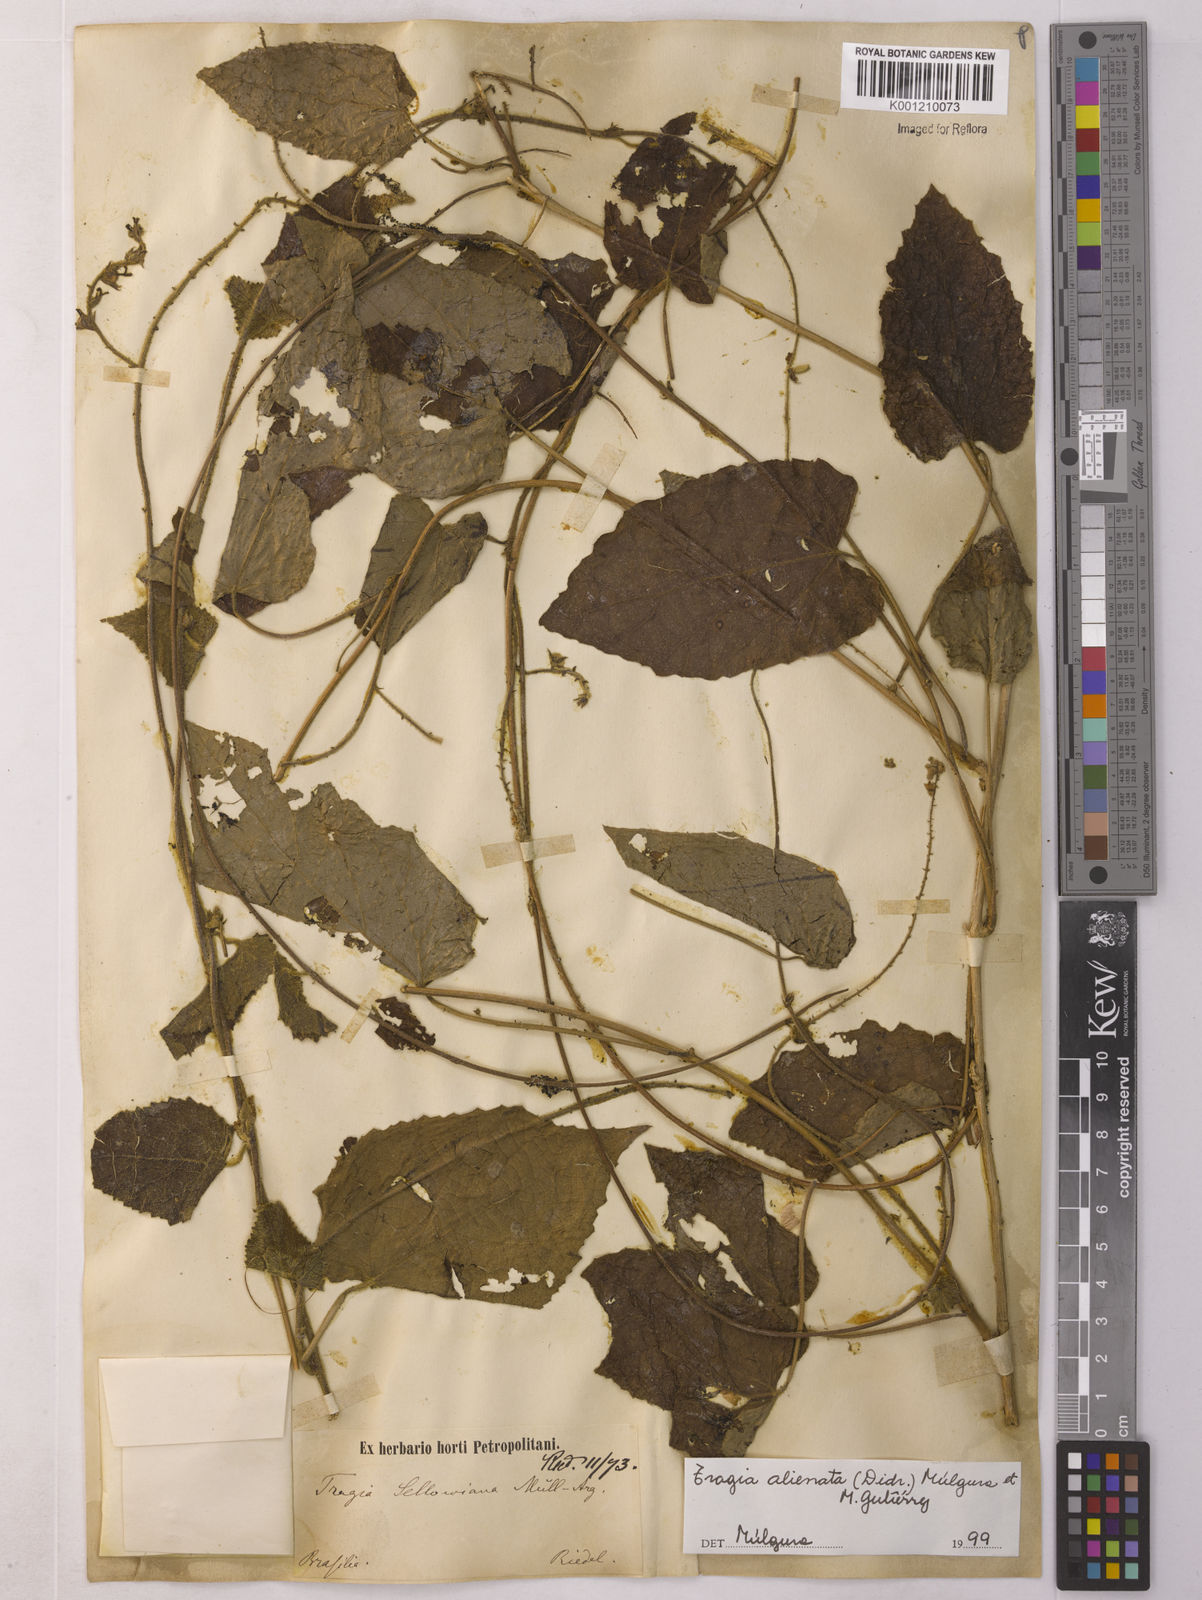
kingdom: Plantae
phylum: Tracheophyta
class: Magnoliopsida
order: Malpighiales
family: Euphorbiaceae
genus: Bia
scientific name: Bia alienata
